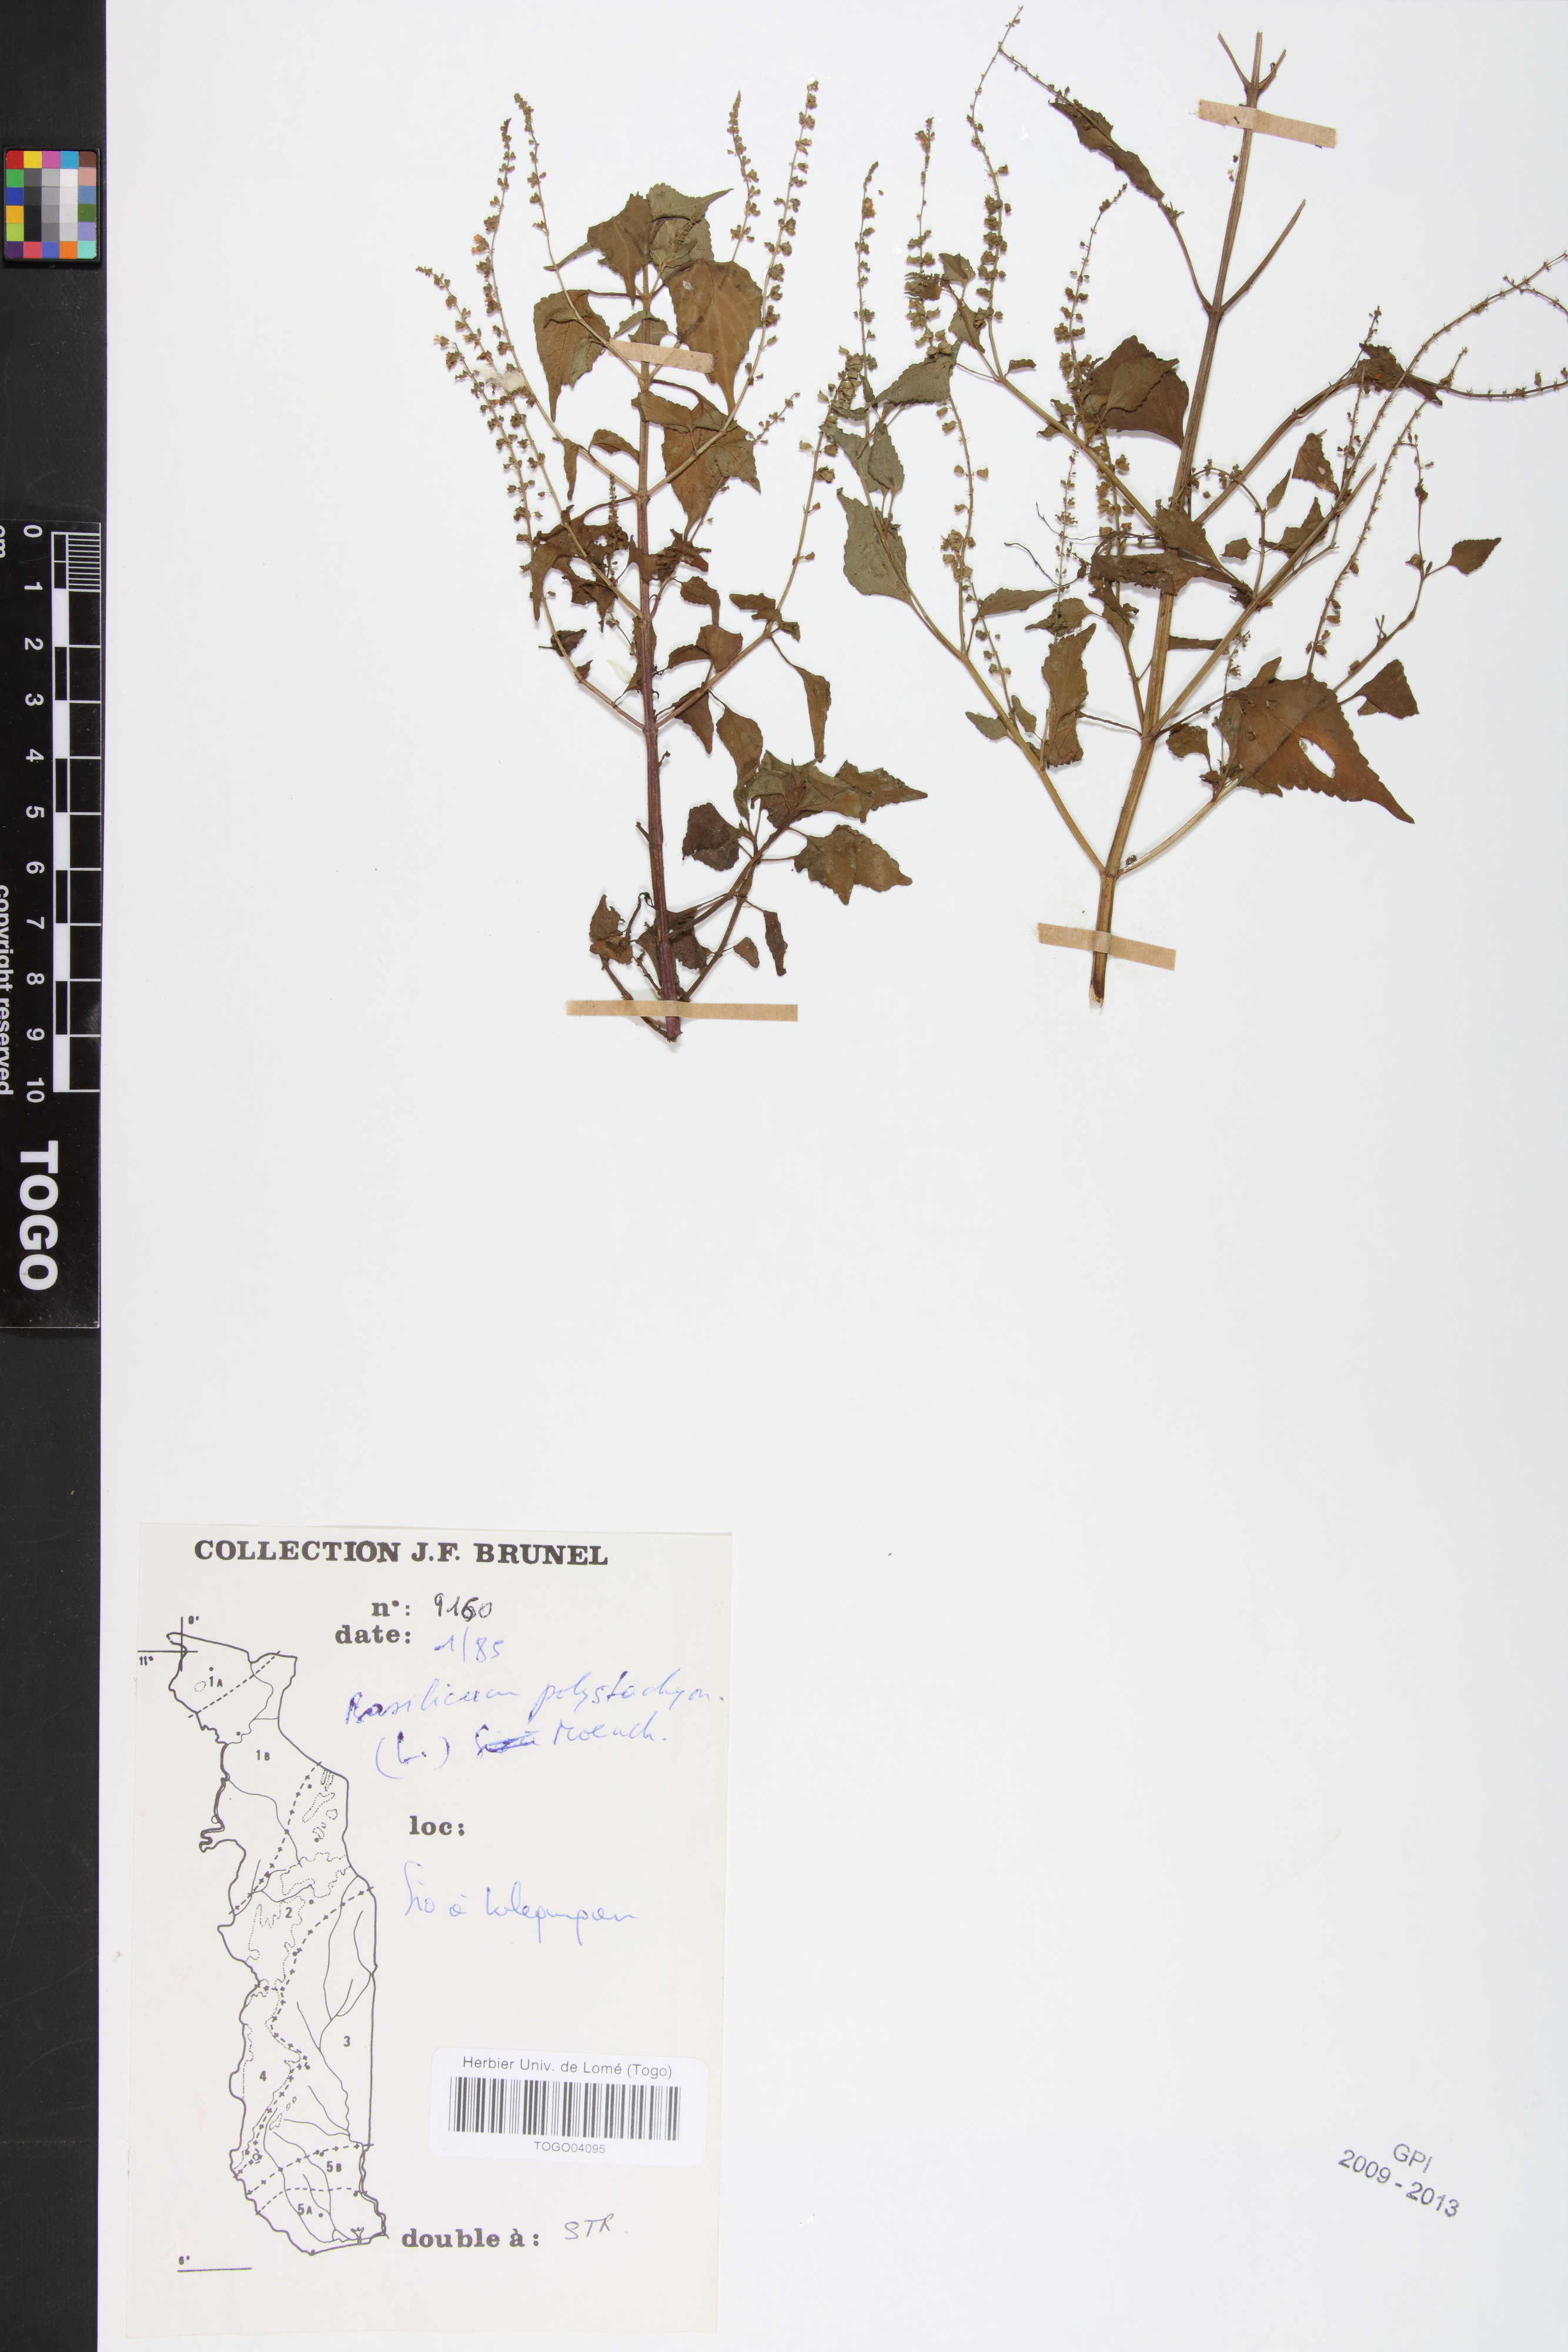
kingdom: Plantae
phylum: Tracheophyta
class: Magnoliopsida
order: Lamiales
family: Lamiaceae
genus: Basilicum
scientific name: Basilicum polystachyon
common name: Musk-basil
